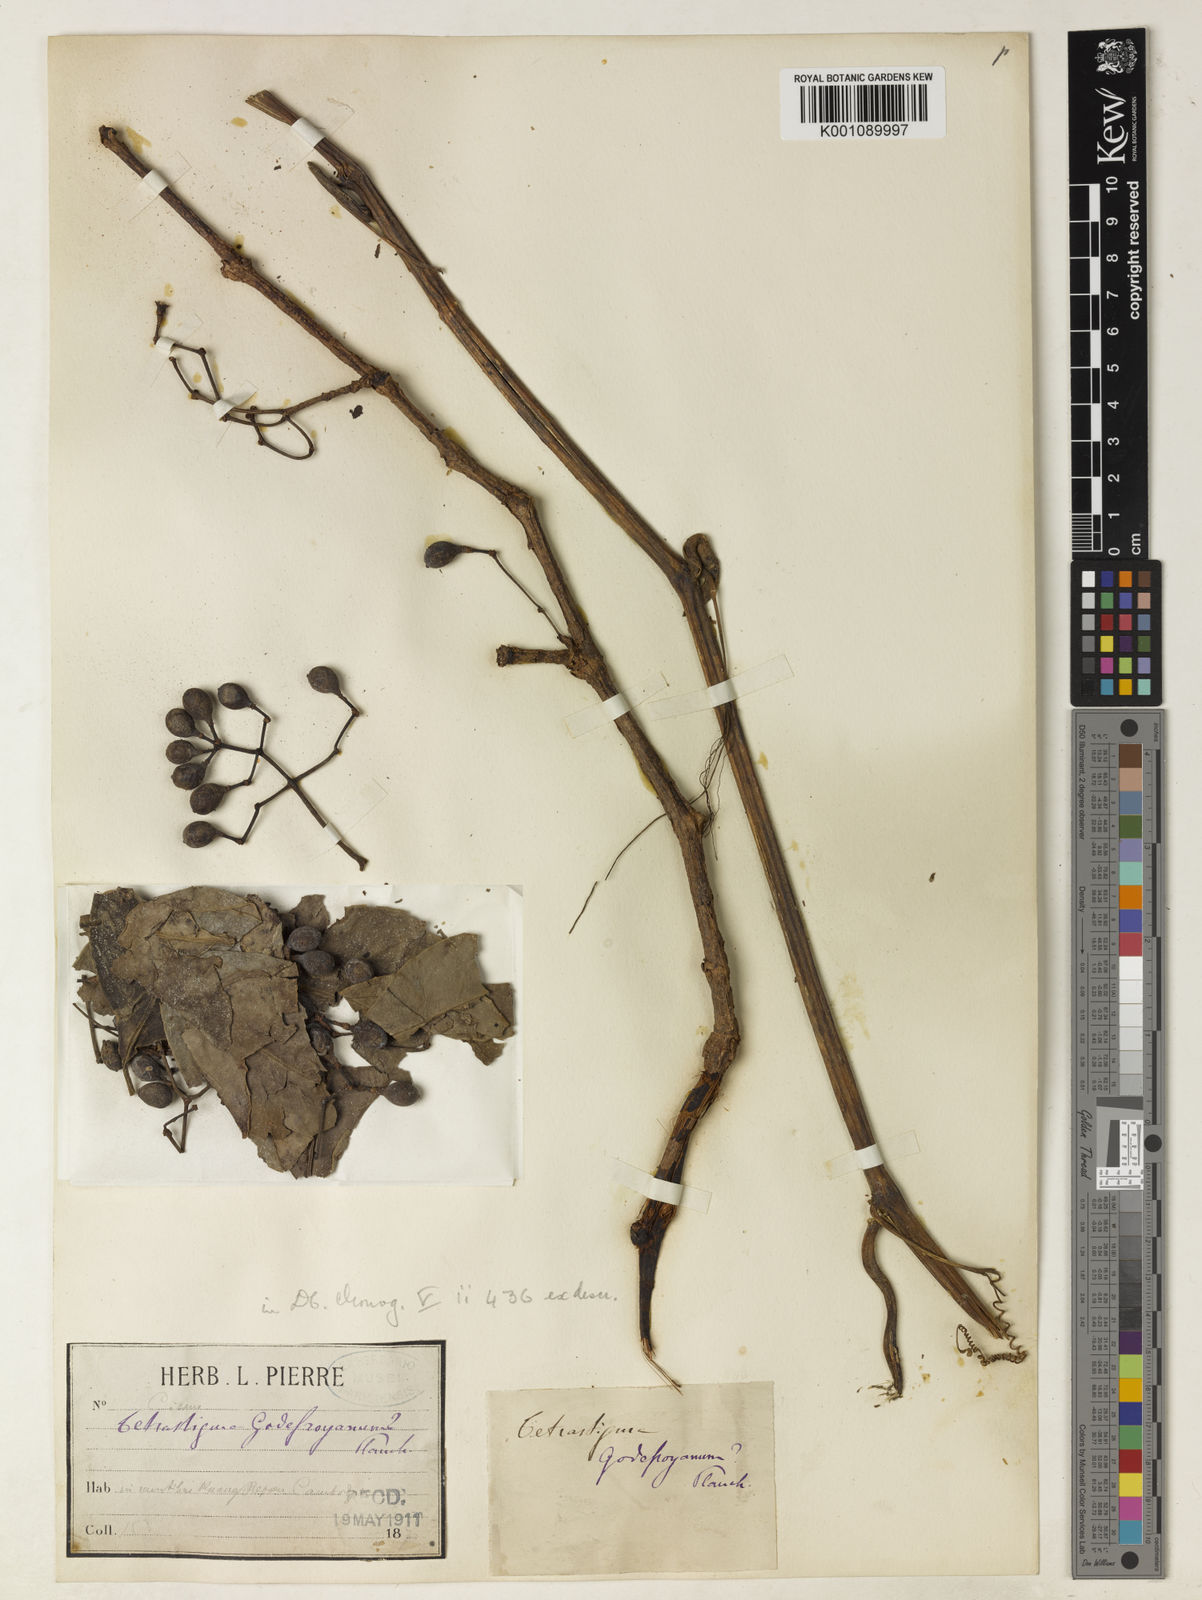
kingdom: Plantae
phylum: Tracheophyta
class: Magnoliopsida
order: Vitales
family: Vitaceae
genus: Tetrastigma
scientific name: Tetrastigma scariosum
